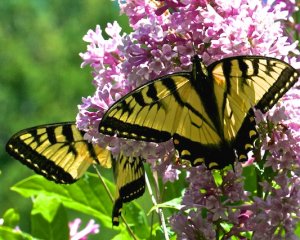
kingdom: Animalia
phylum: Arthropoda
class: Insecta
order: Lepidoptera
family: Papilionidae
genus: Pterourus
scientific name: Pterourus canadensis
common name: Canadian Tiger Swallowtail
